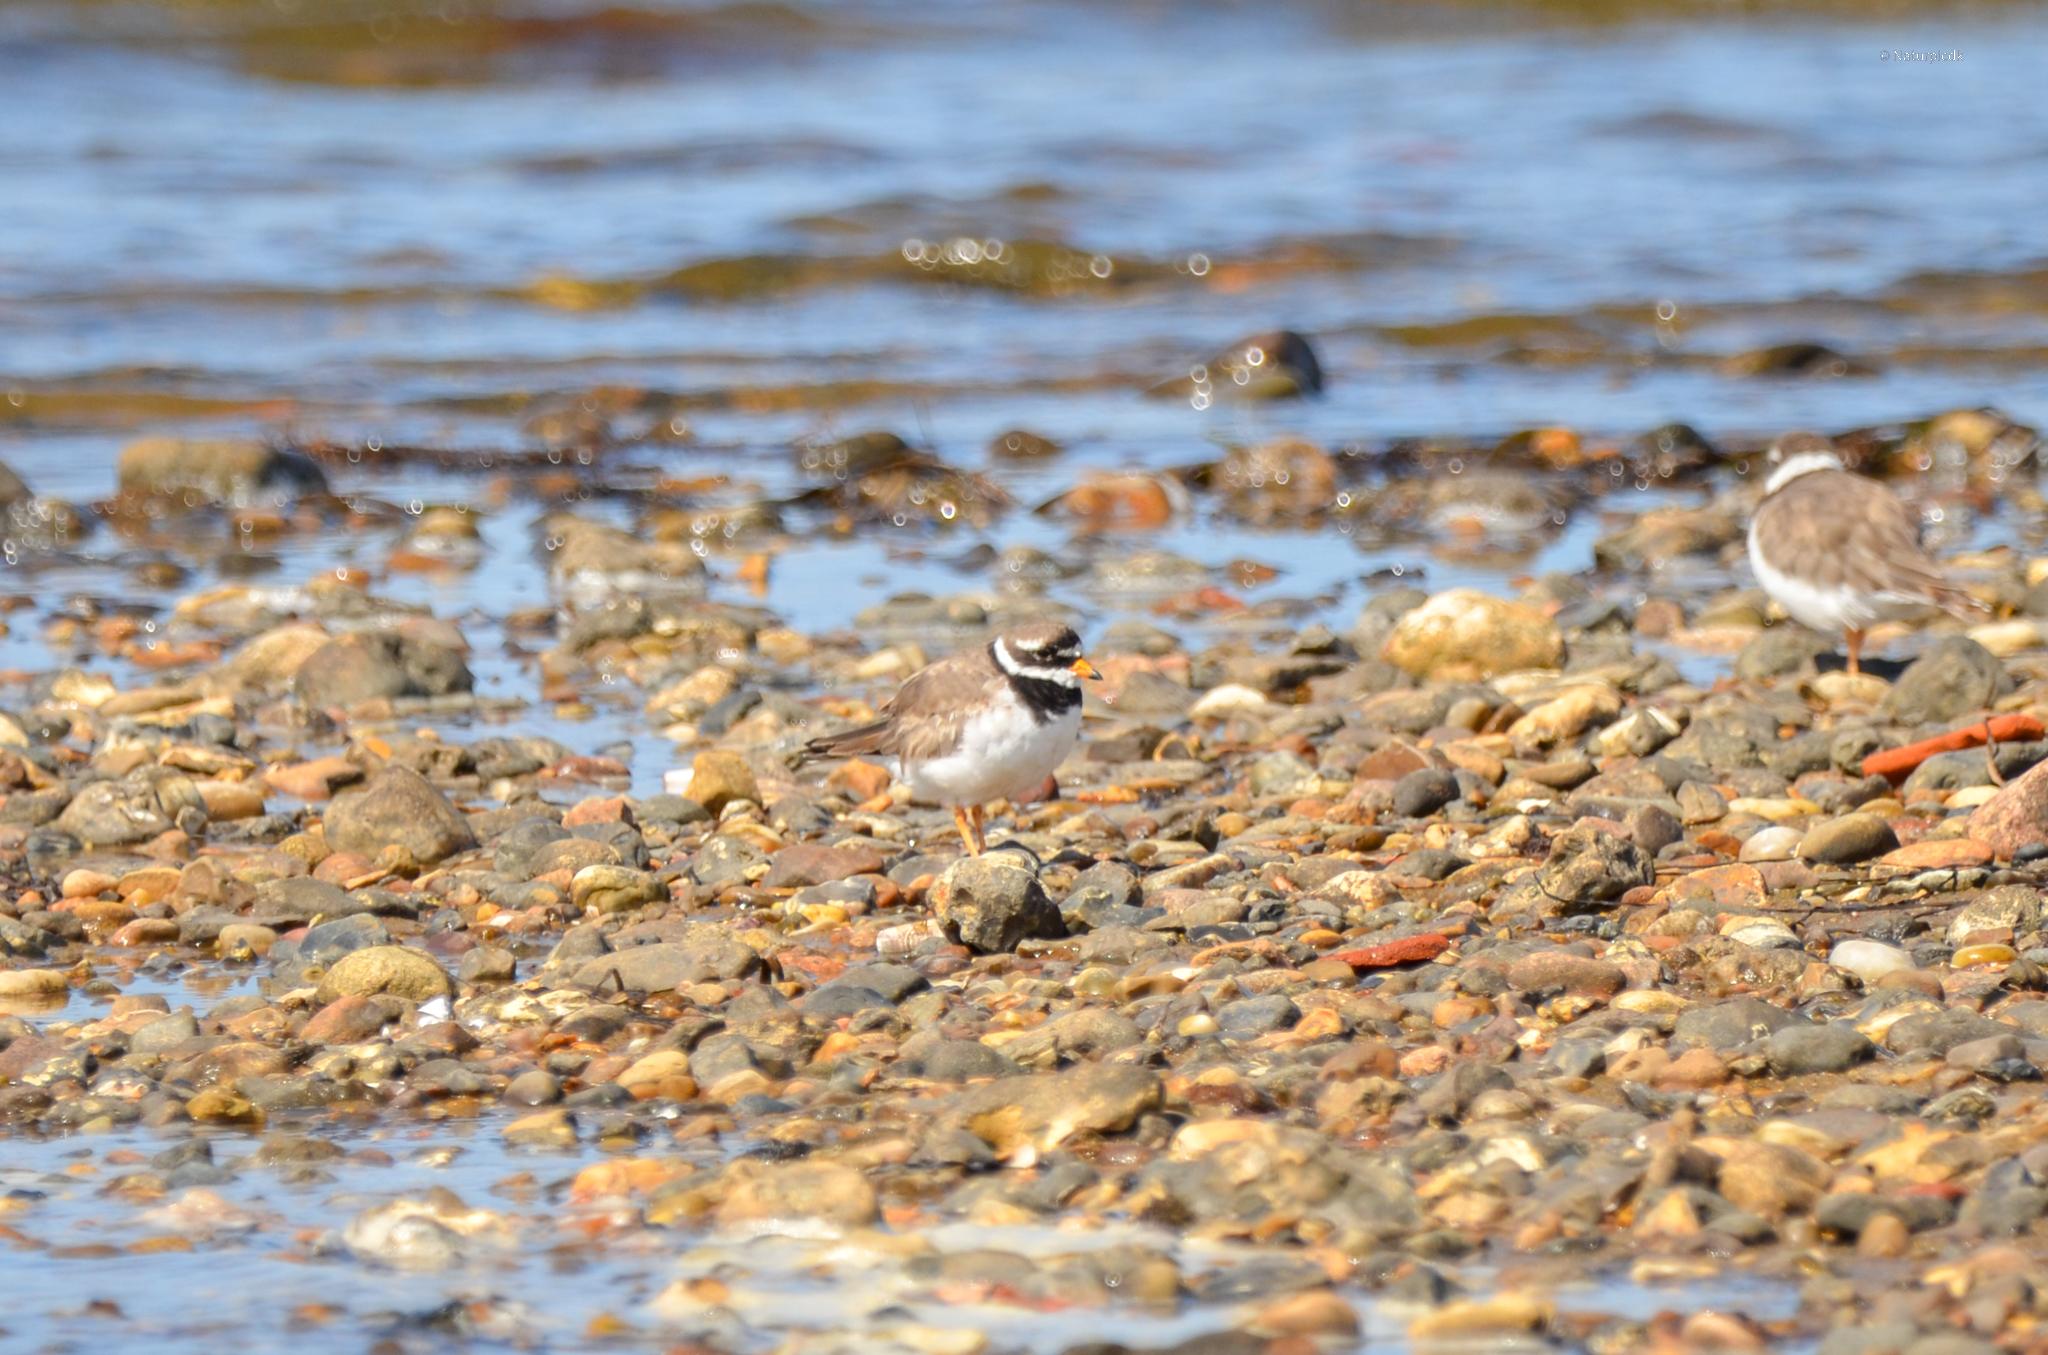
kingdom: Animalia
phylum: Chordata
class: Aves
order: Charadriiformes
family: Charadriidae
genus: Charadrius
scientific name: Charadrius hiaticula
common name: Stor præstekrave
